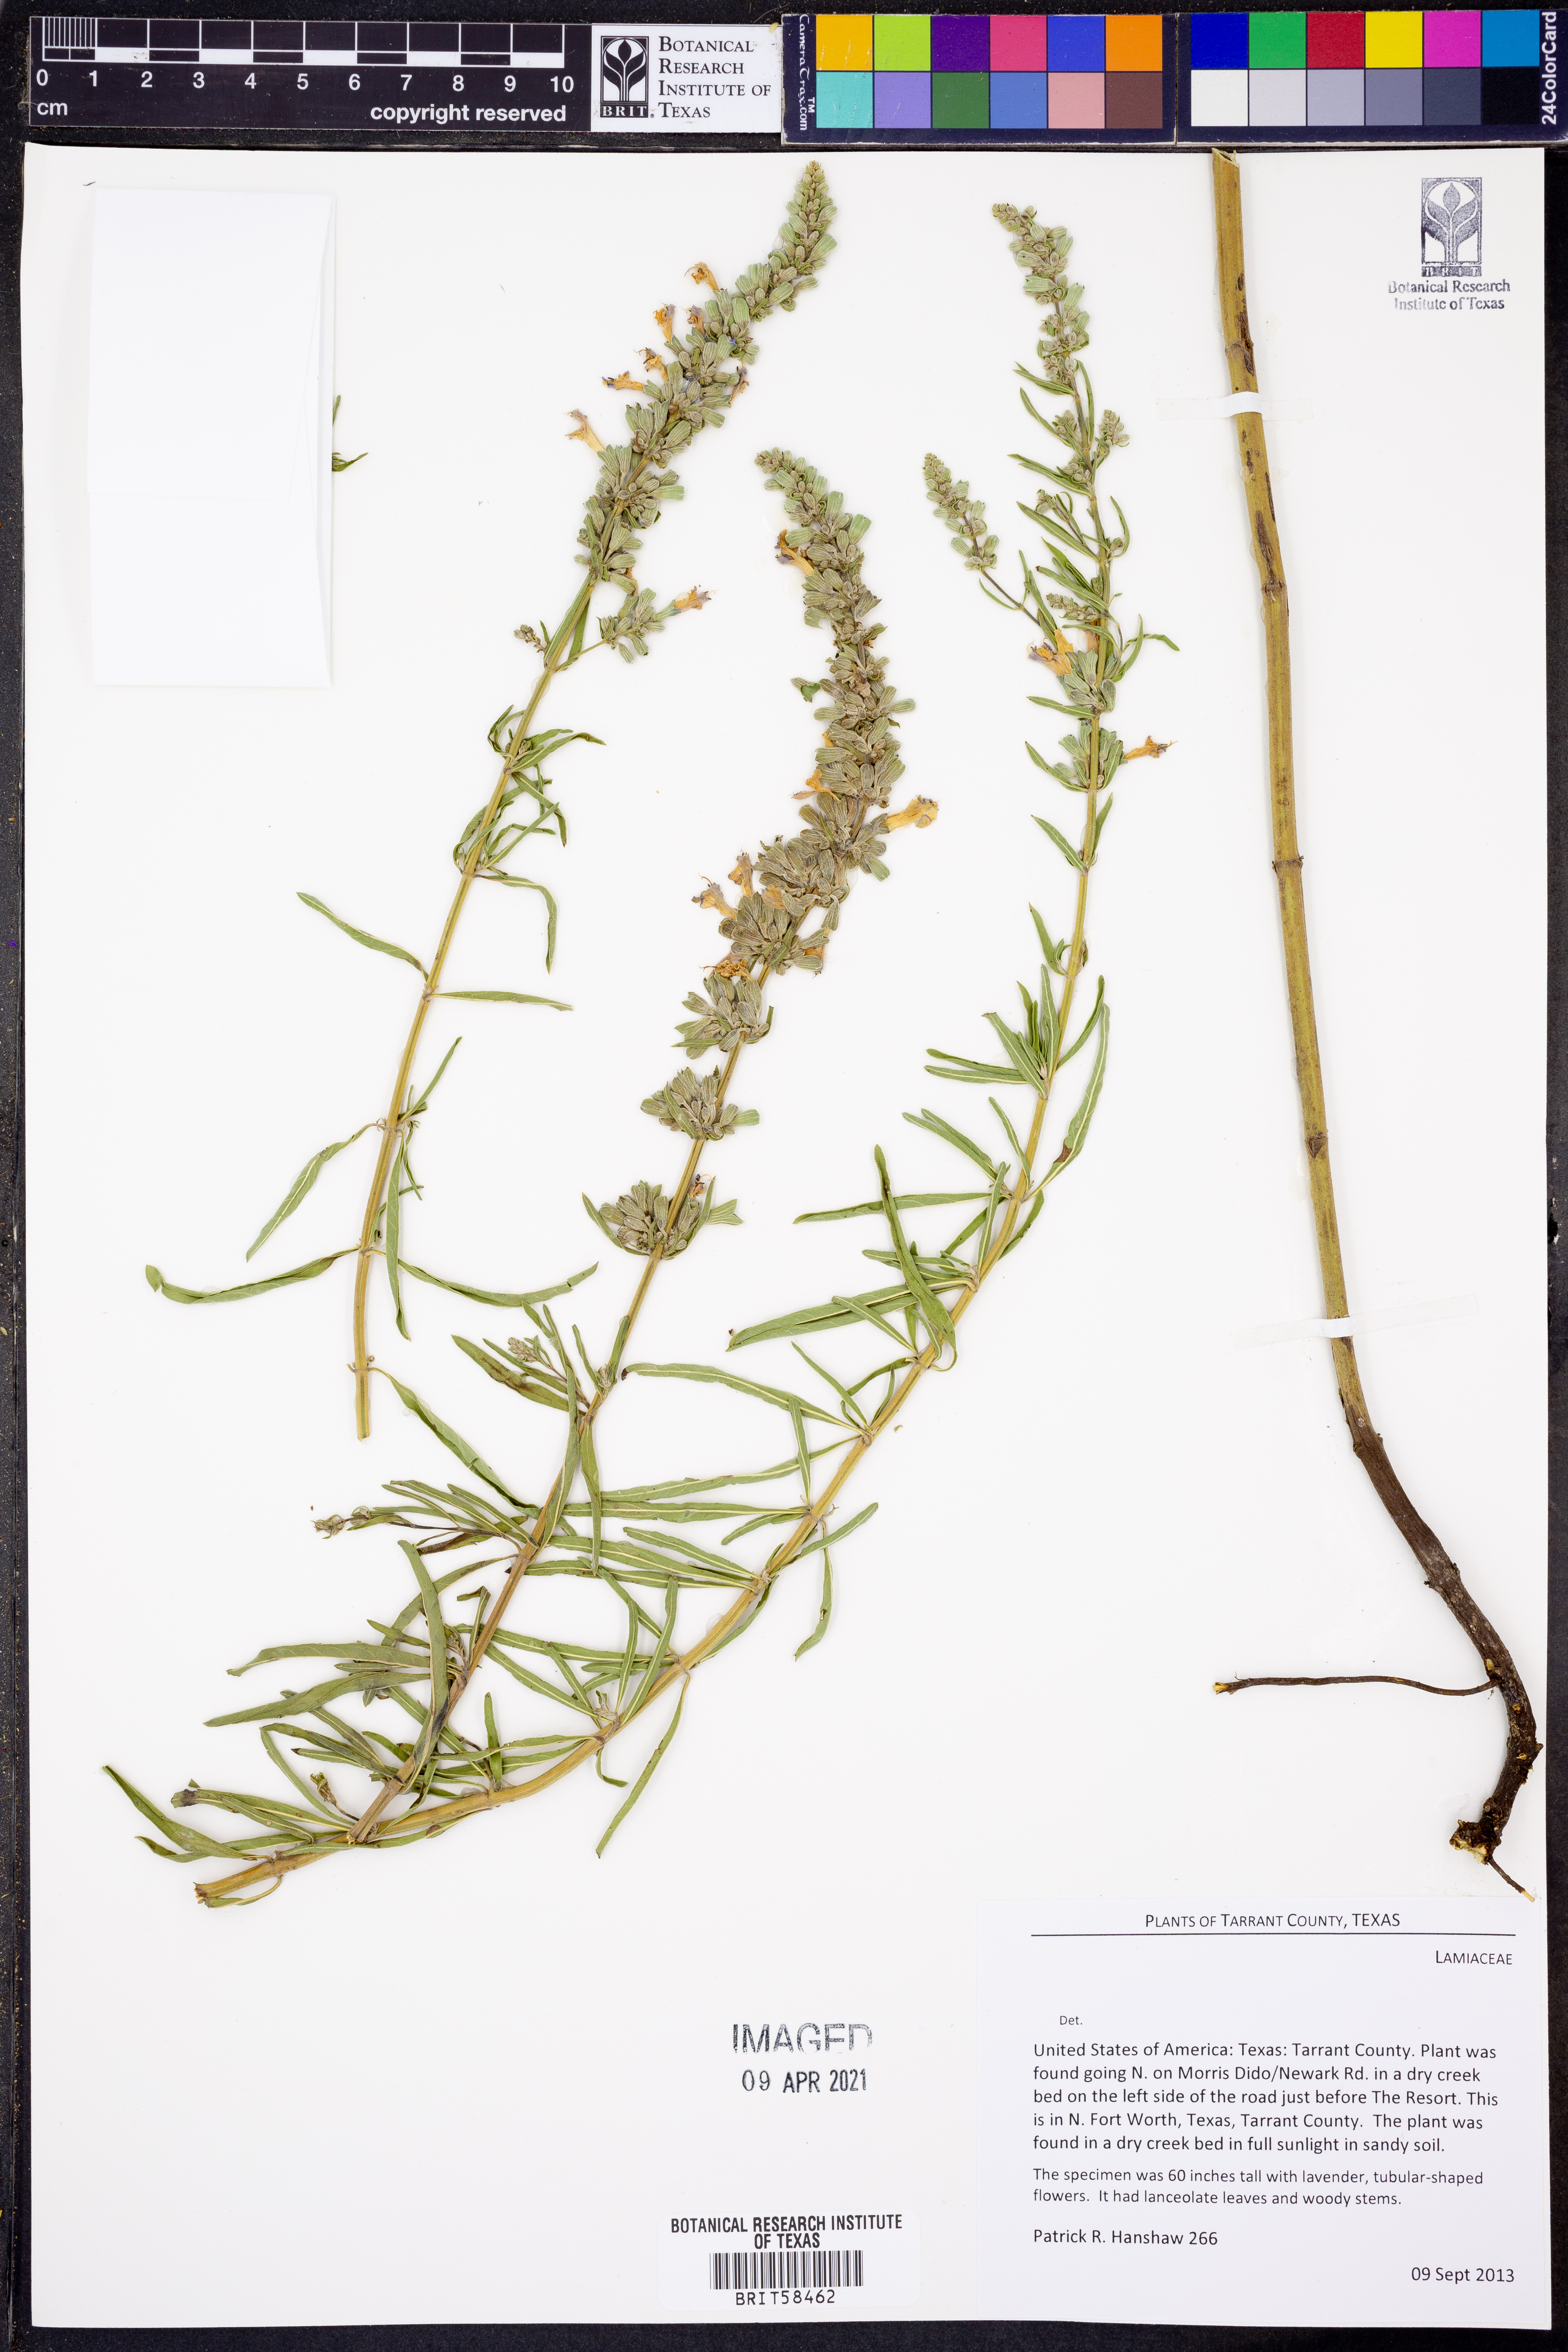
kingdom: Plantae
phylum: Tracheophyta
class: Magnoliopsida
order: Lamiales
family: Lamiaceae
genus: Salvia
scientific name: Salvia farinacea
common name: Mealy sage
